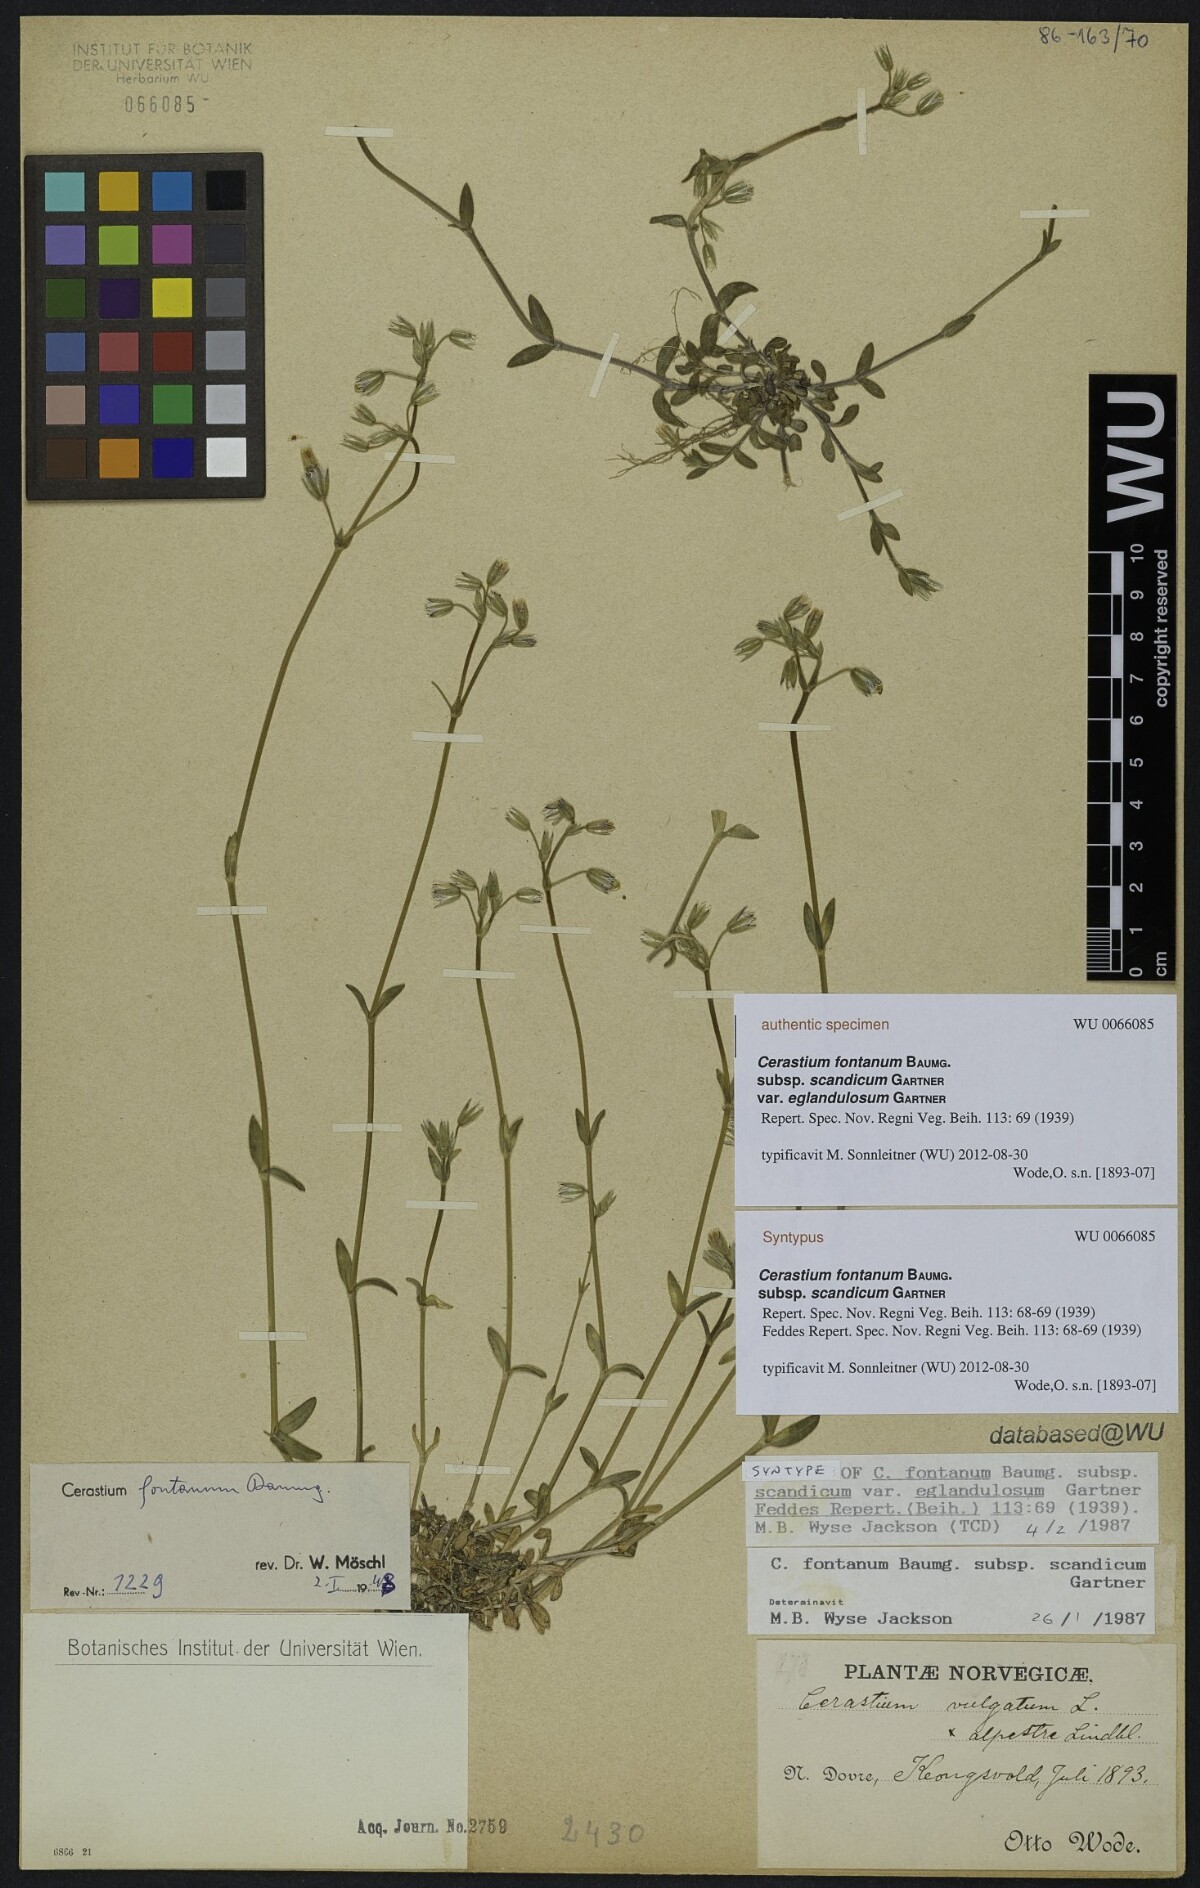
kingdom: Plantae
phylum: Tracheophyta
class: Magnoliopsida
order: Caryophyllales
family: Caryophyllaceae
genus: Cerastium
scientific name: Cerastium holosteoides
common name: Big chickweed
